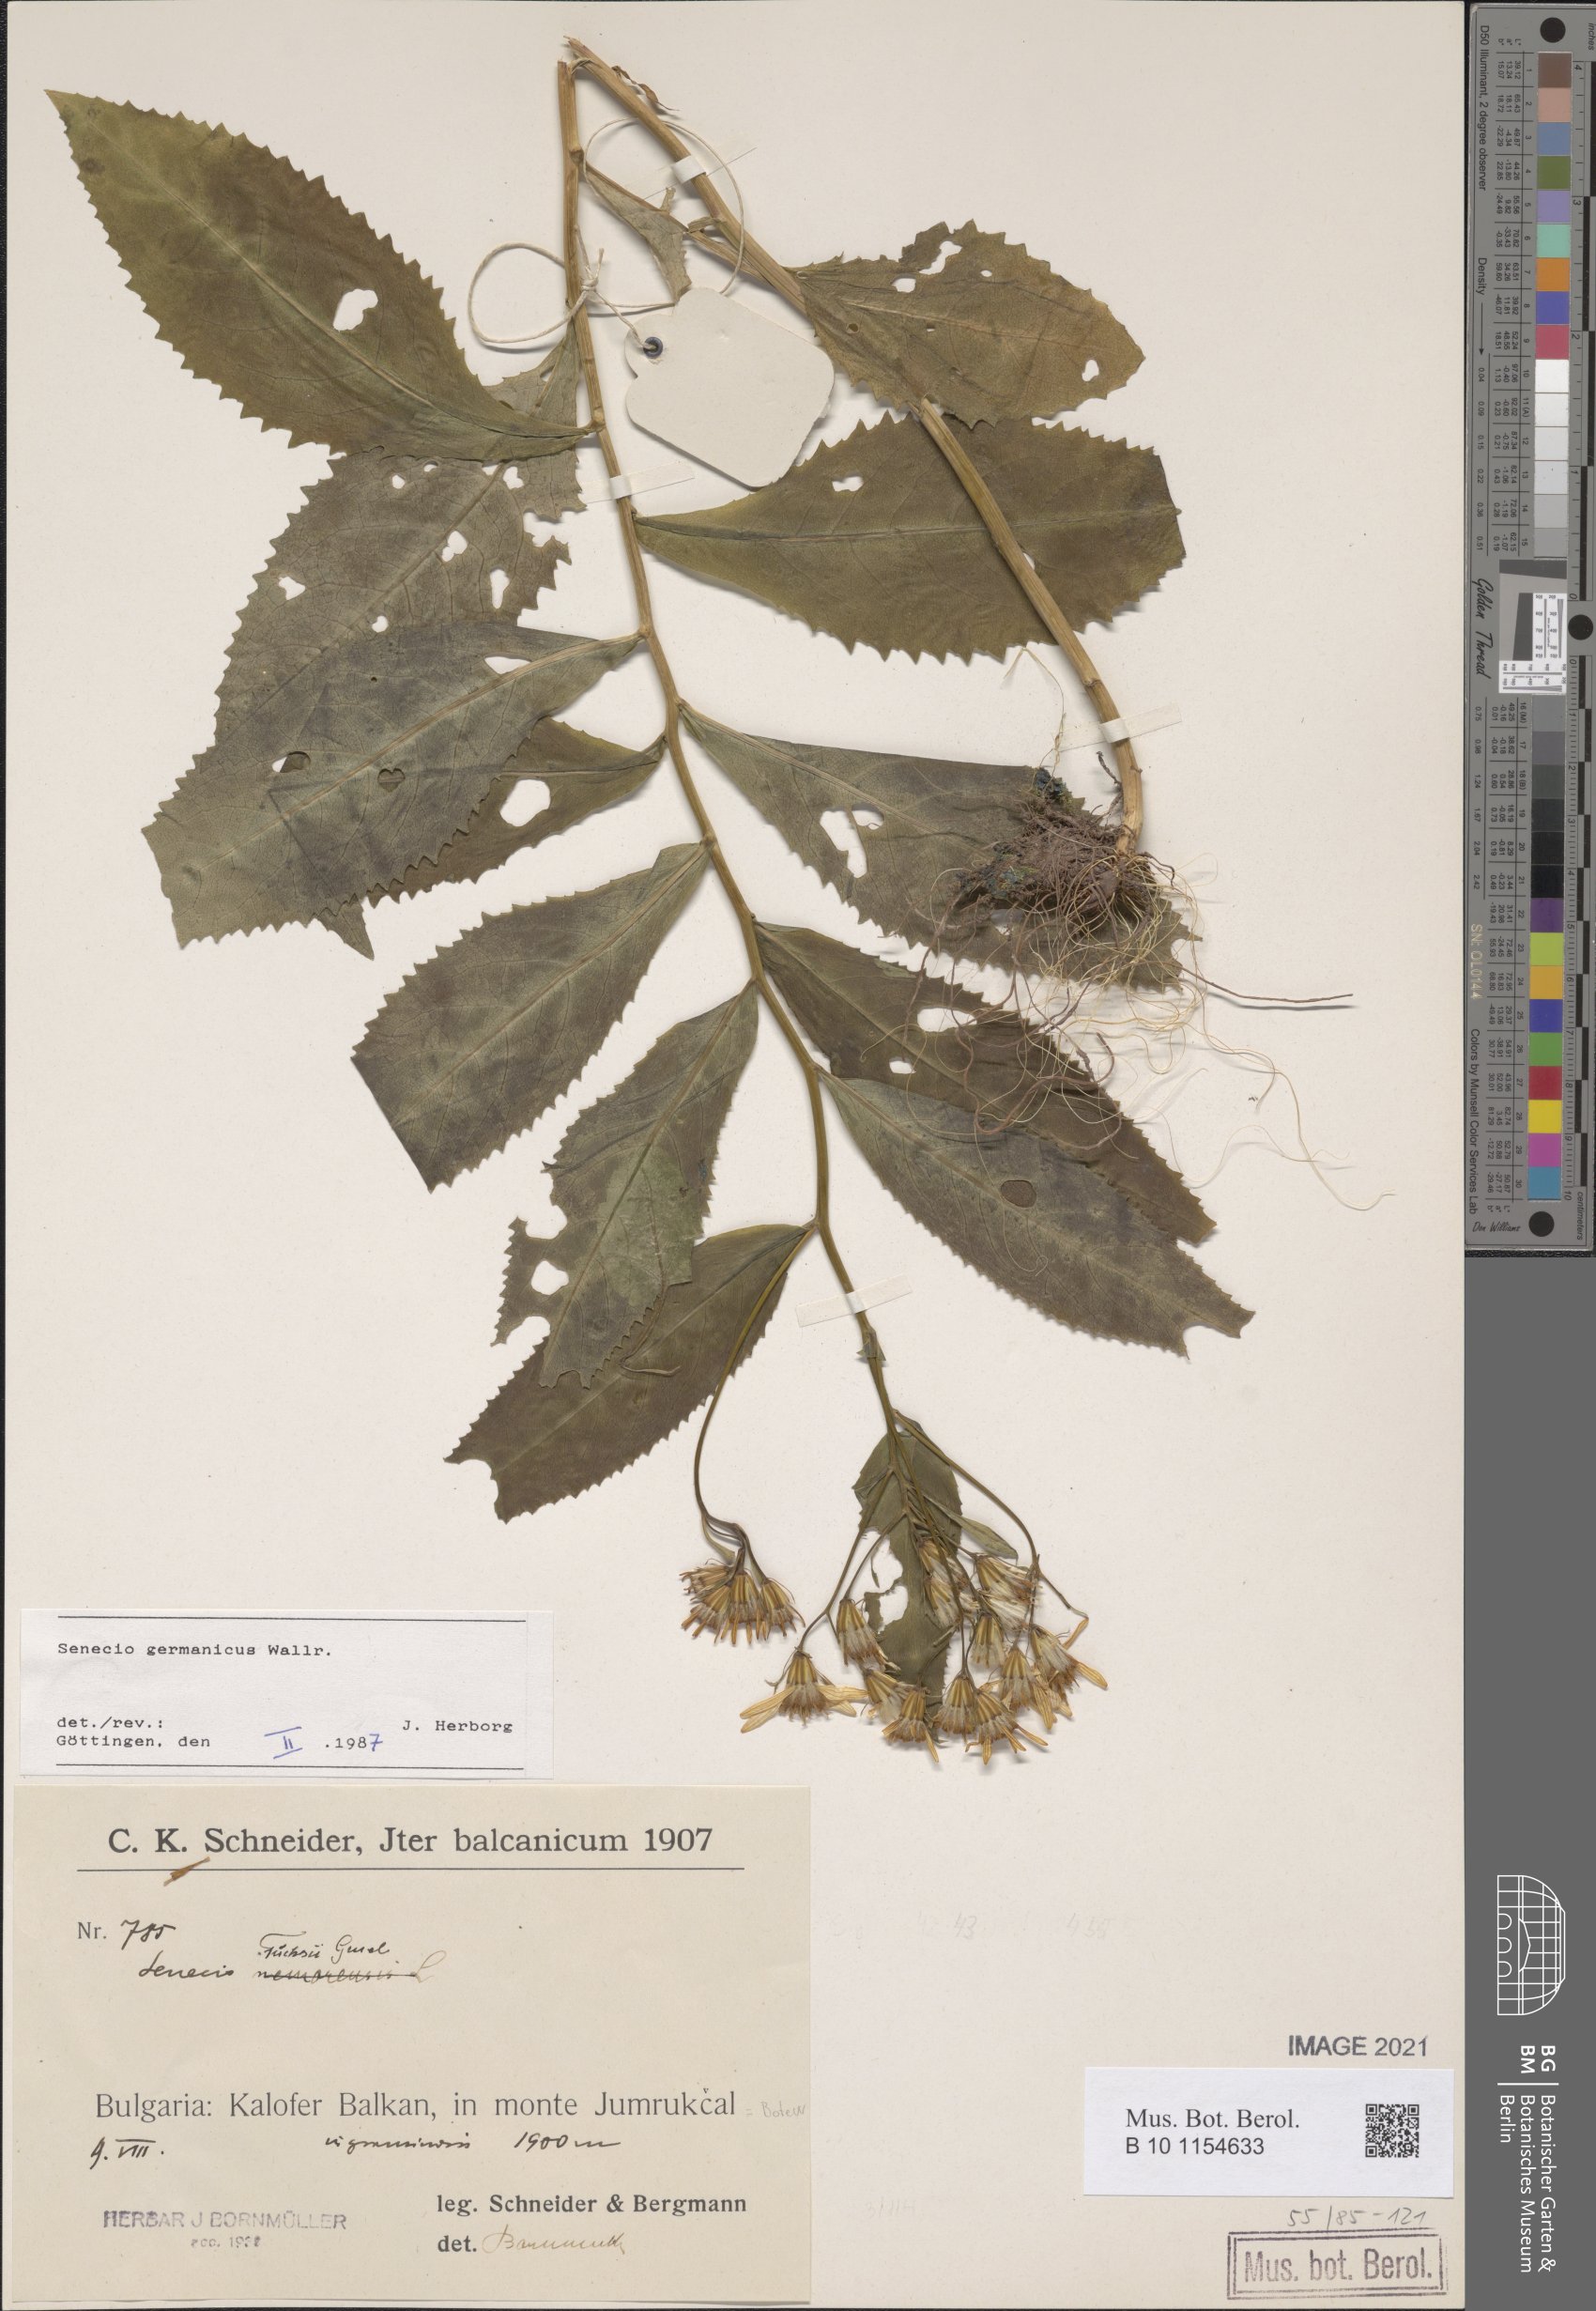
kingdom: Plantae
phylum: Tracheophyta
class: Magnoliopsida
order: Asterales
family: Asteraceae
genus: Senecio
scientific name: Senecio germanicus
